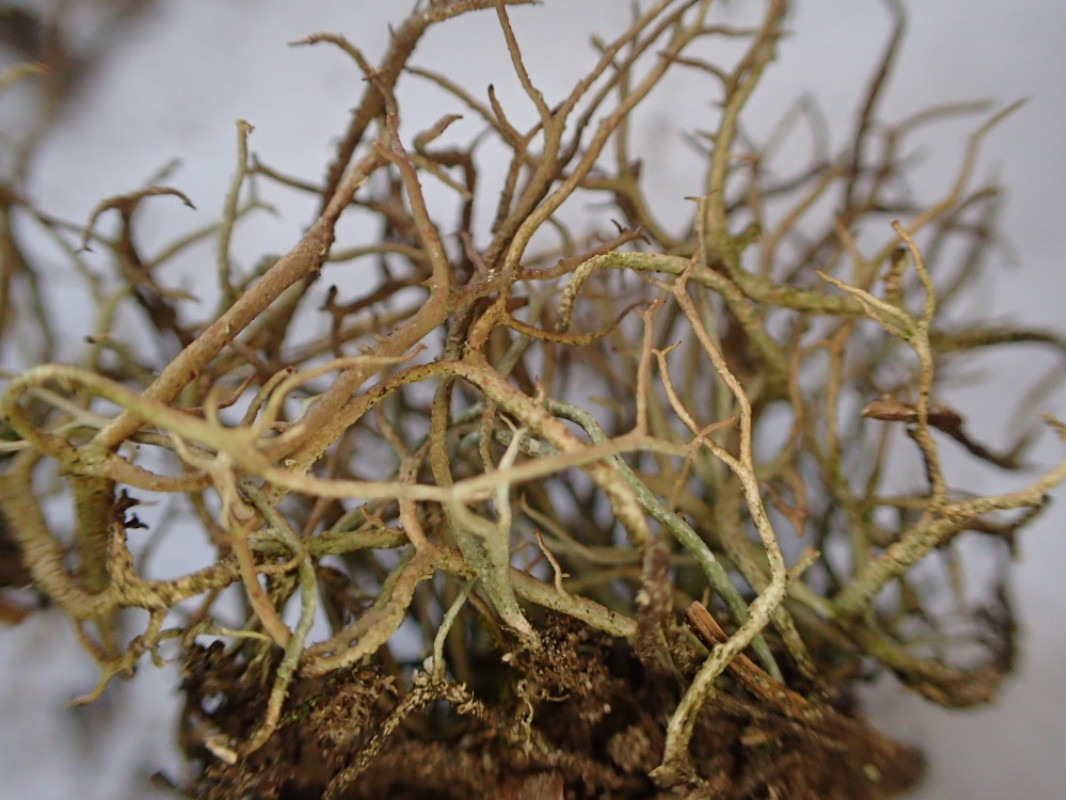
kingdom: Fungi
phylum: Ascomycota
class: Lecanoromycetes
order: Lecanorales
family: Cladoniaceae
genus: Cladonia
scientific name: Cladonia furcata
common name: kløftet bægerlav
